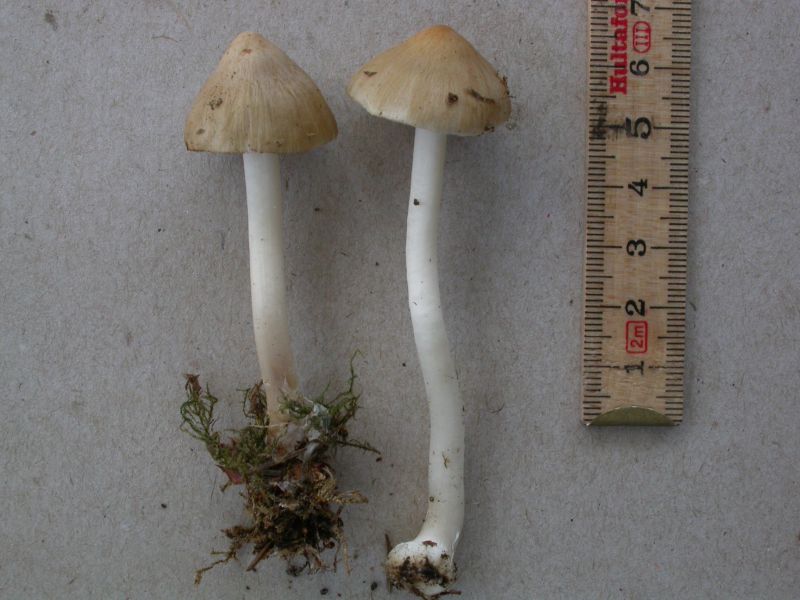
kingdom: Fungi
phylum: Basidiomycota
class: Agaricomycetes
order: Agaricales
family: Inocybaceae
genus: Inocybe
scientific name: Inocybe mixtilis
